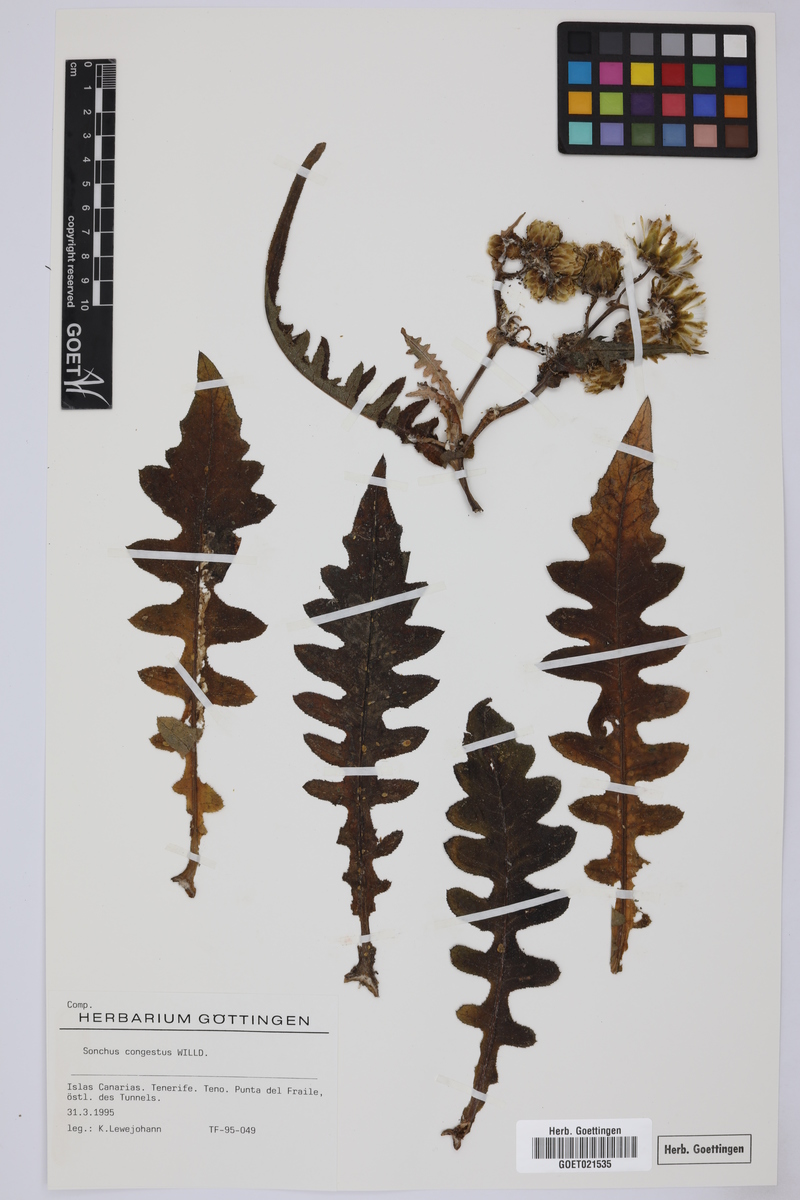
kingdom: Plantae
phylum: Tracheophyta
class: Magnoliopsida
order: Asterales
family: Asteraceae
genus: Sonchus
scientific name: Sonchus congestus
